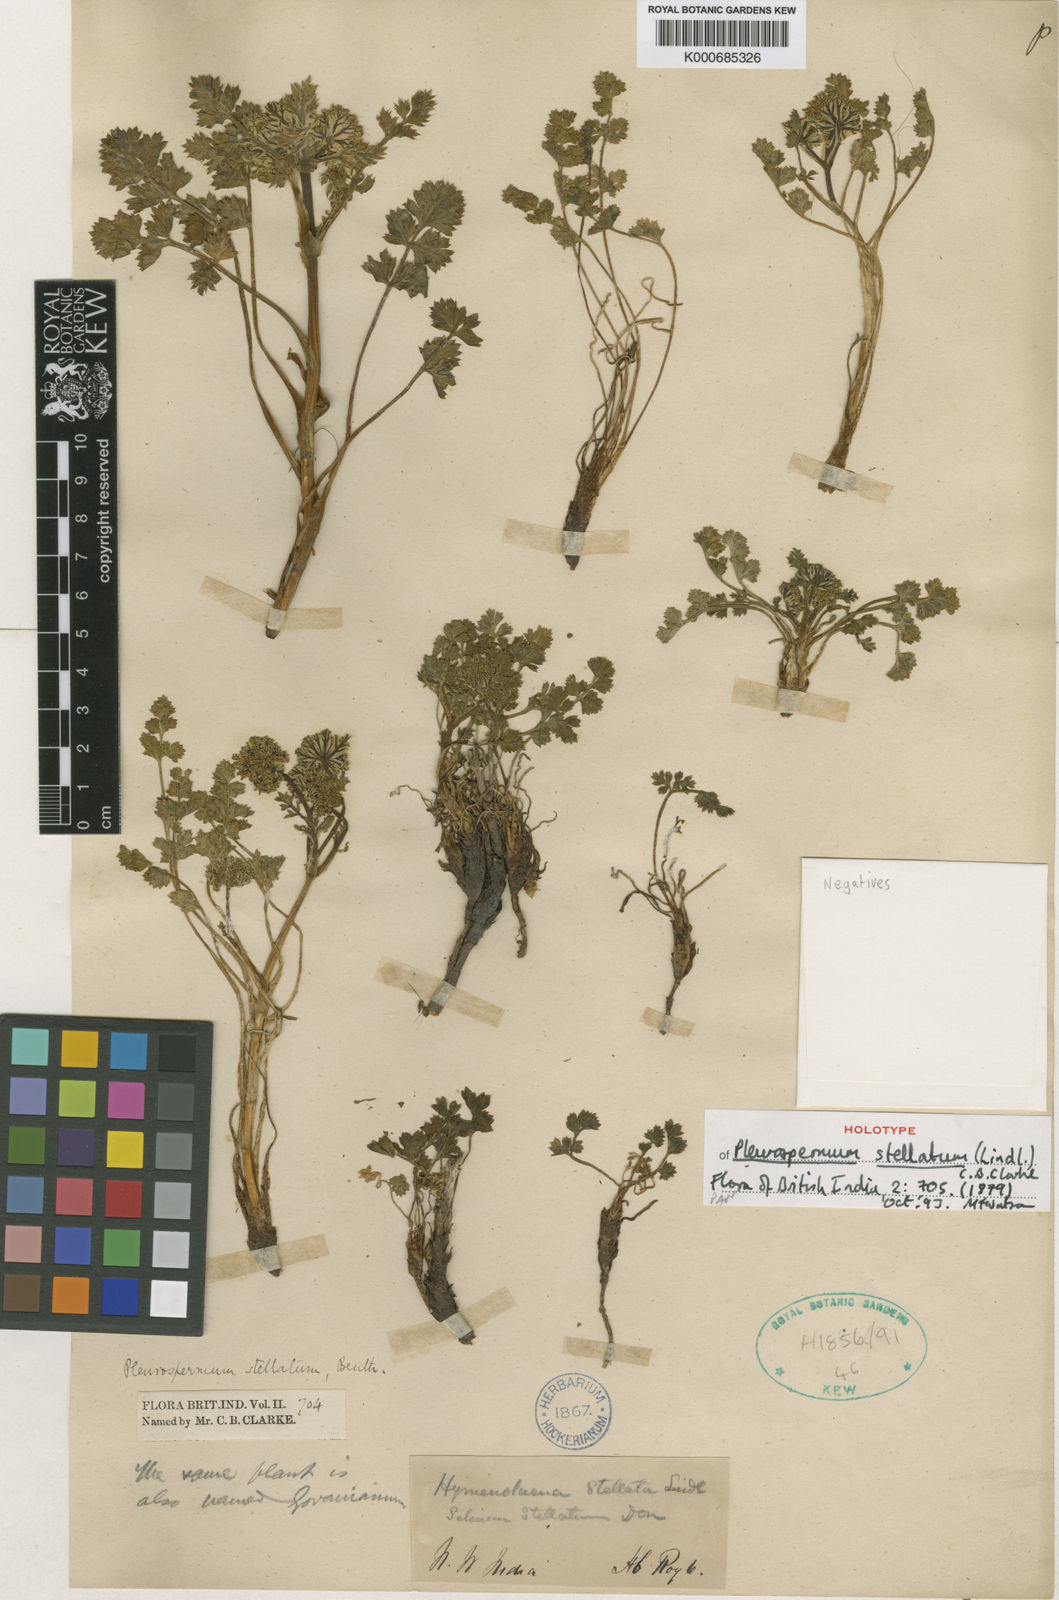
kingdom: Plantae
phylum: Tracheophyta
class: Magnoliopsida
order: Apiales
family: Apiaceae
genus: Hymenidium
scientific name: Hymenidium stellatum
